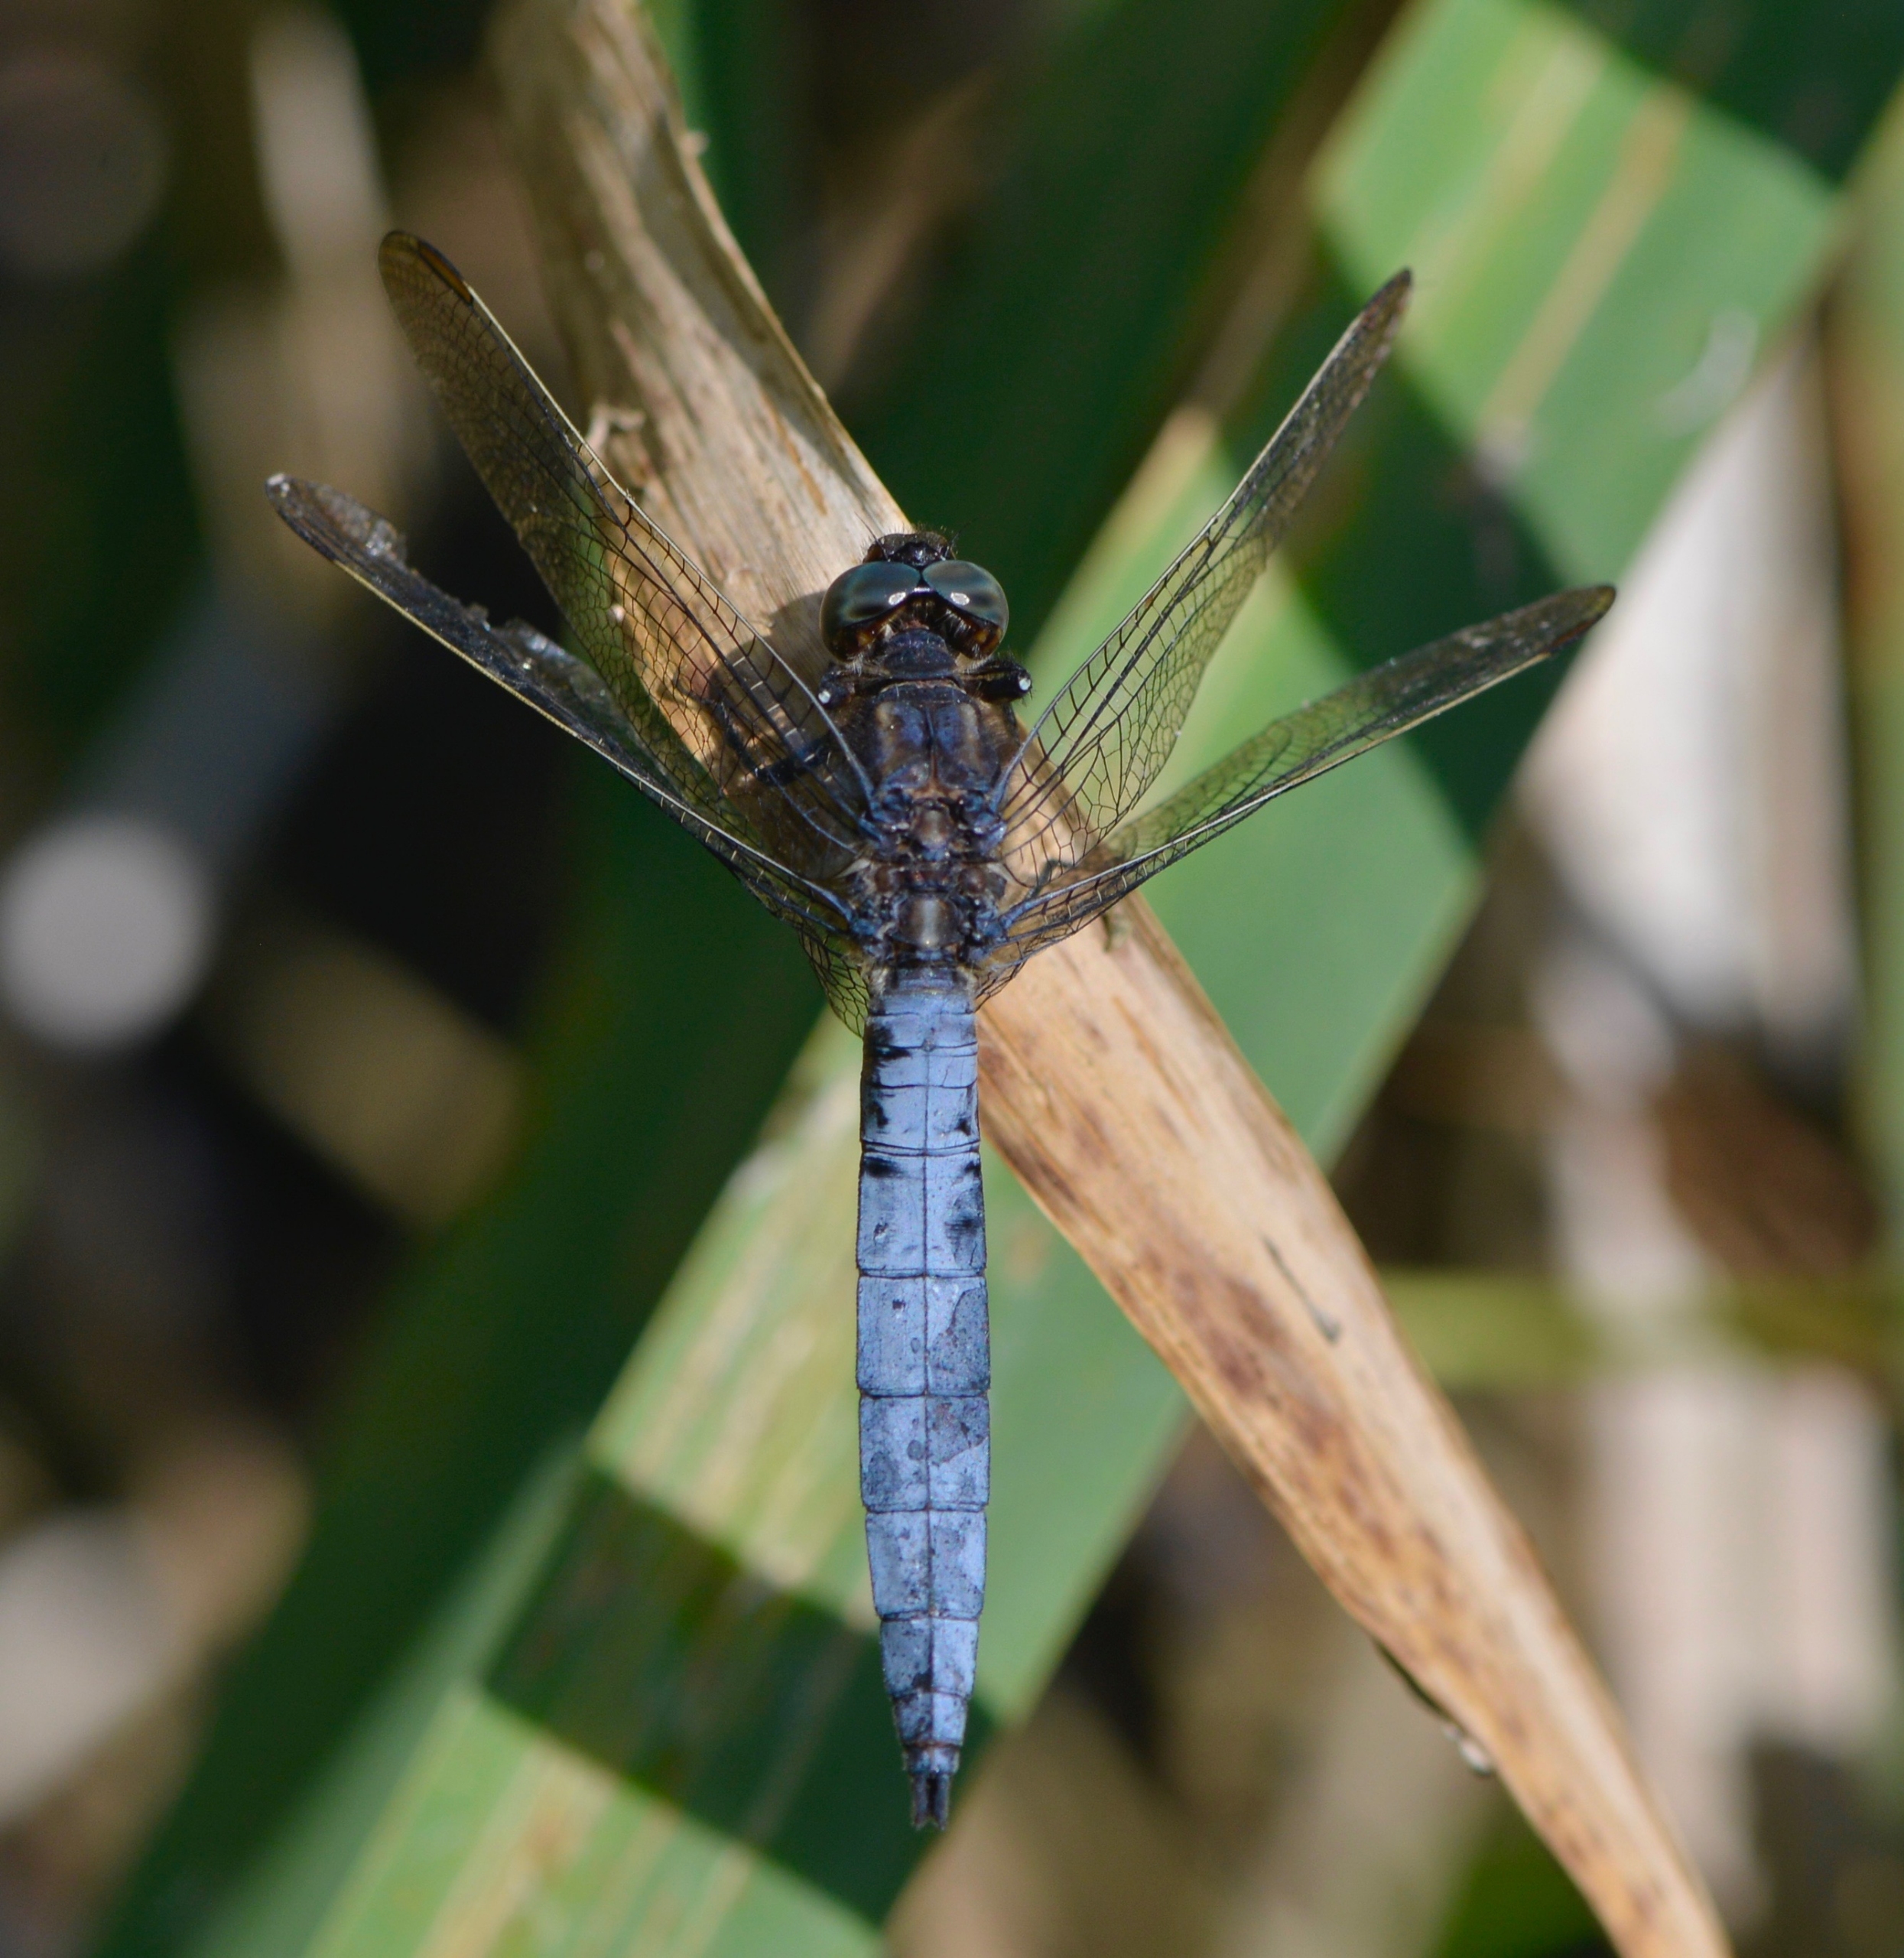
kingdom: Animalia
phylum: Arthropoda
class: Insecta
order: Odonata
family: Libellulidae
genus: Orthetrum
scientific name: Orthetrum coerulescens
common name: Lille blåpil
